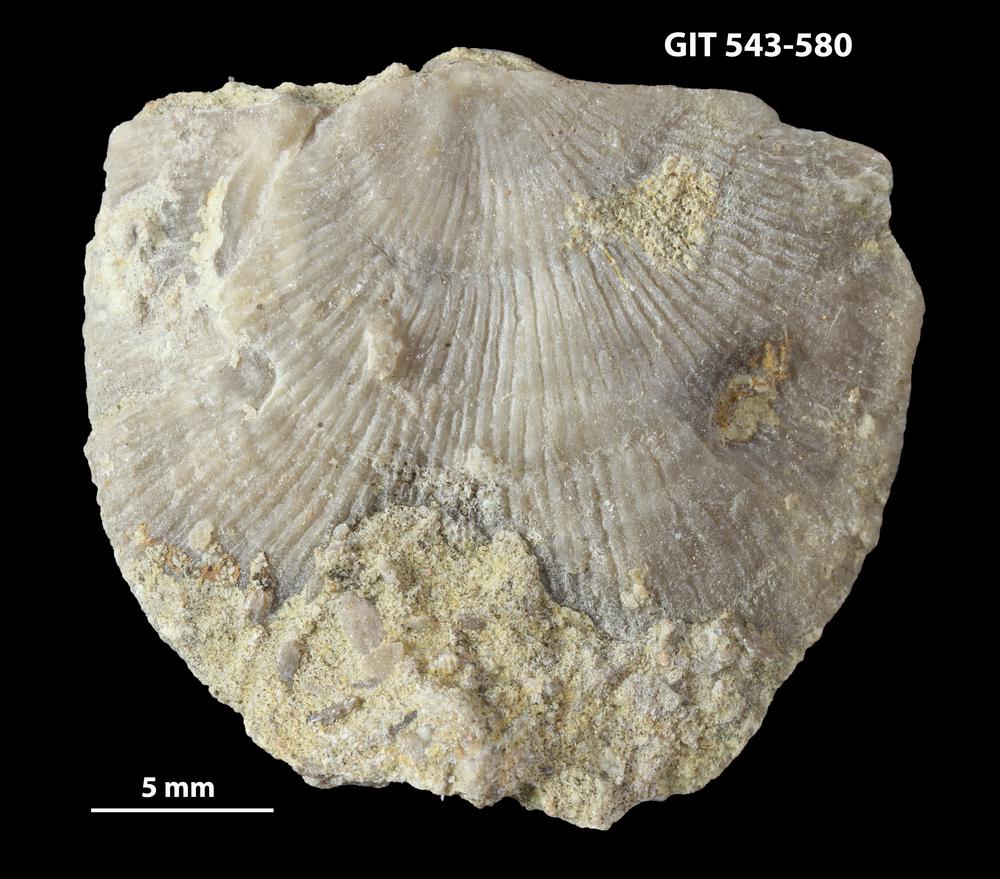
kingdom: Animalia
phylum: Brachiopoda
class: Rhynchonellata
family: Clitambonitidae
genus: Vellamo
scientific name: Vellamo emarginata
